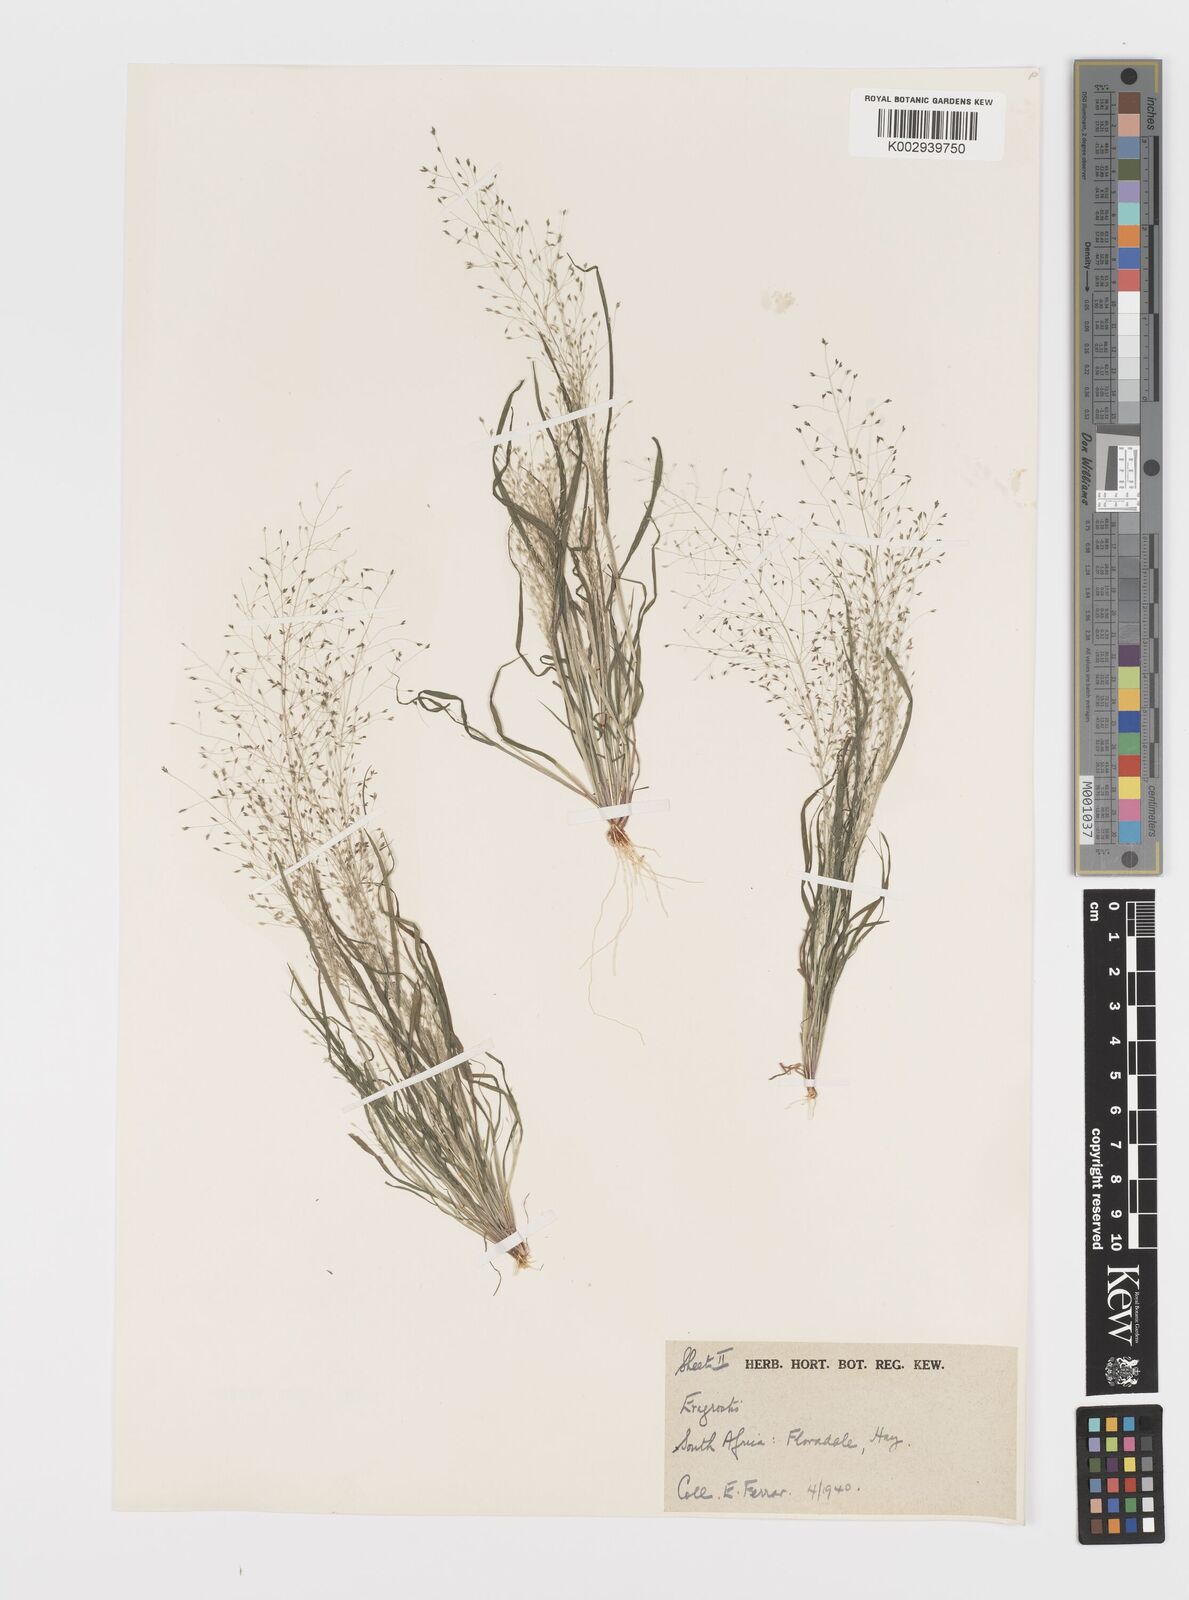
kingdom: Plantae
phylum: Tracheophyta
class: Liliopsida
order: Poales
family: Poaceae
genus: Eragrostis
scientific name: Eragrostis biflora
